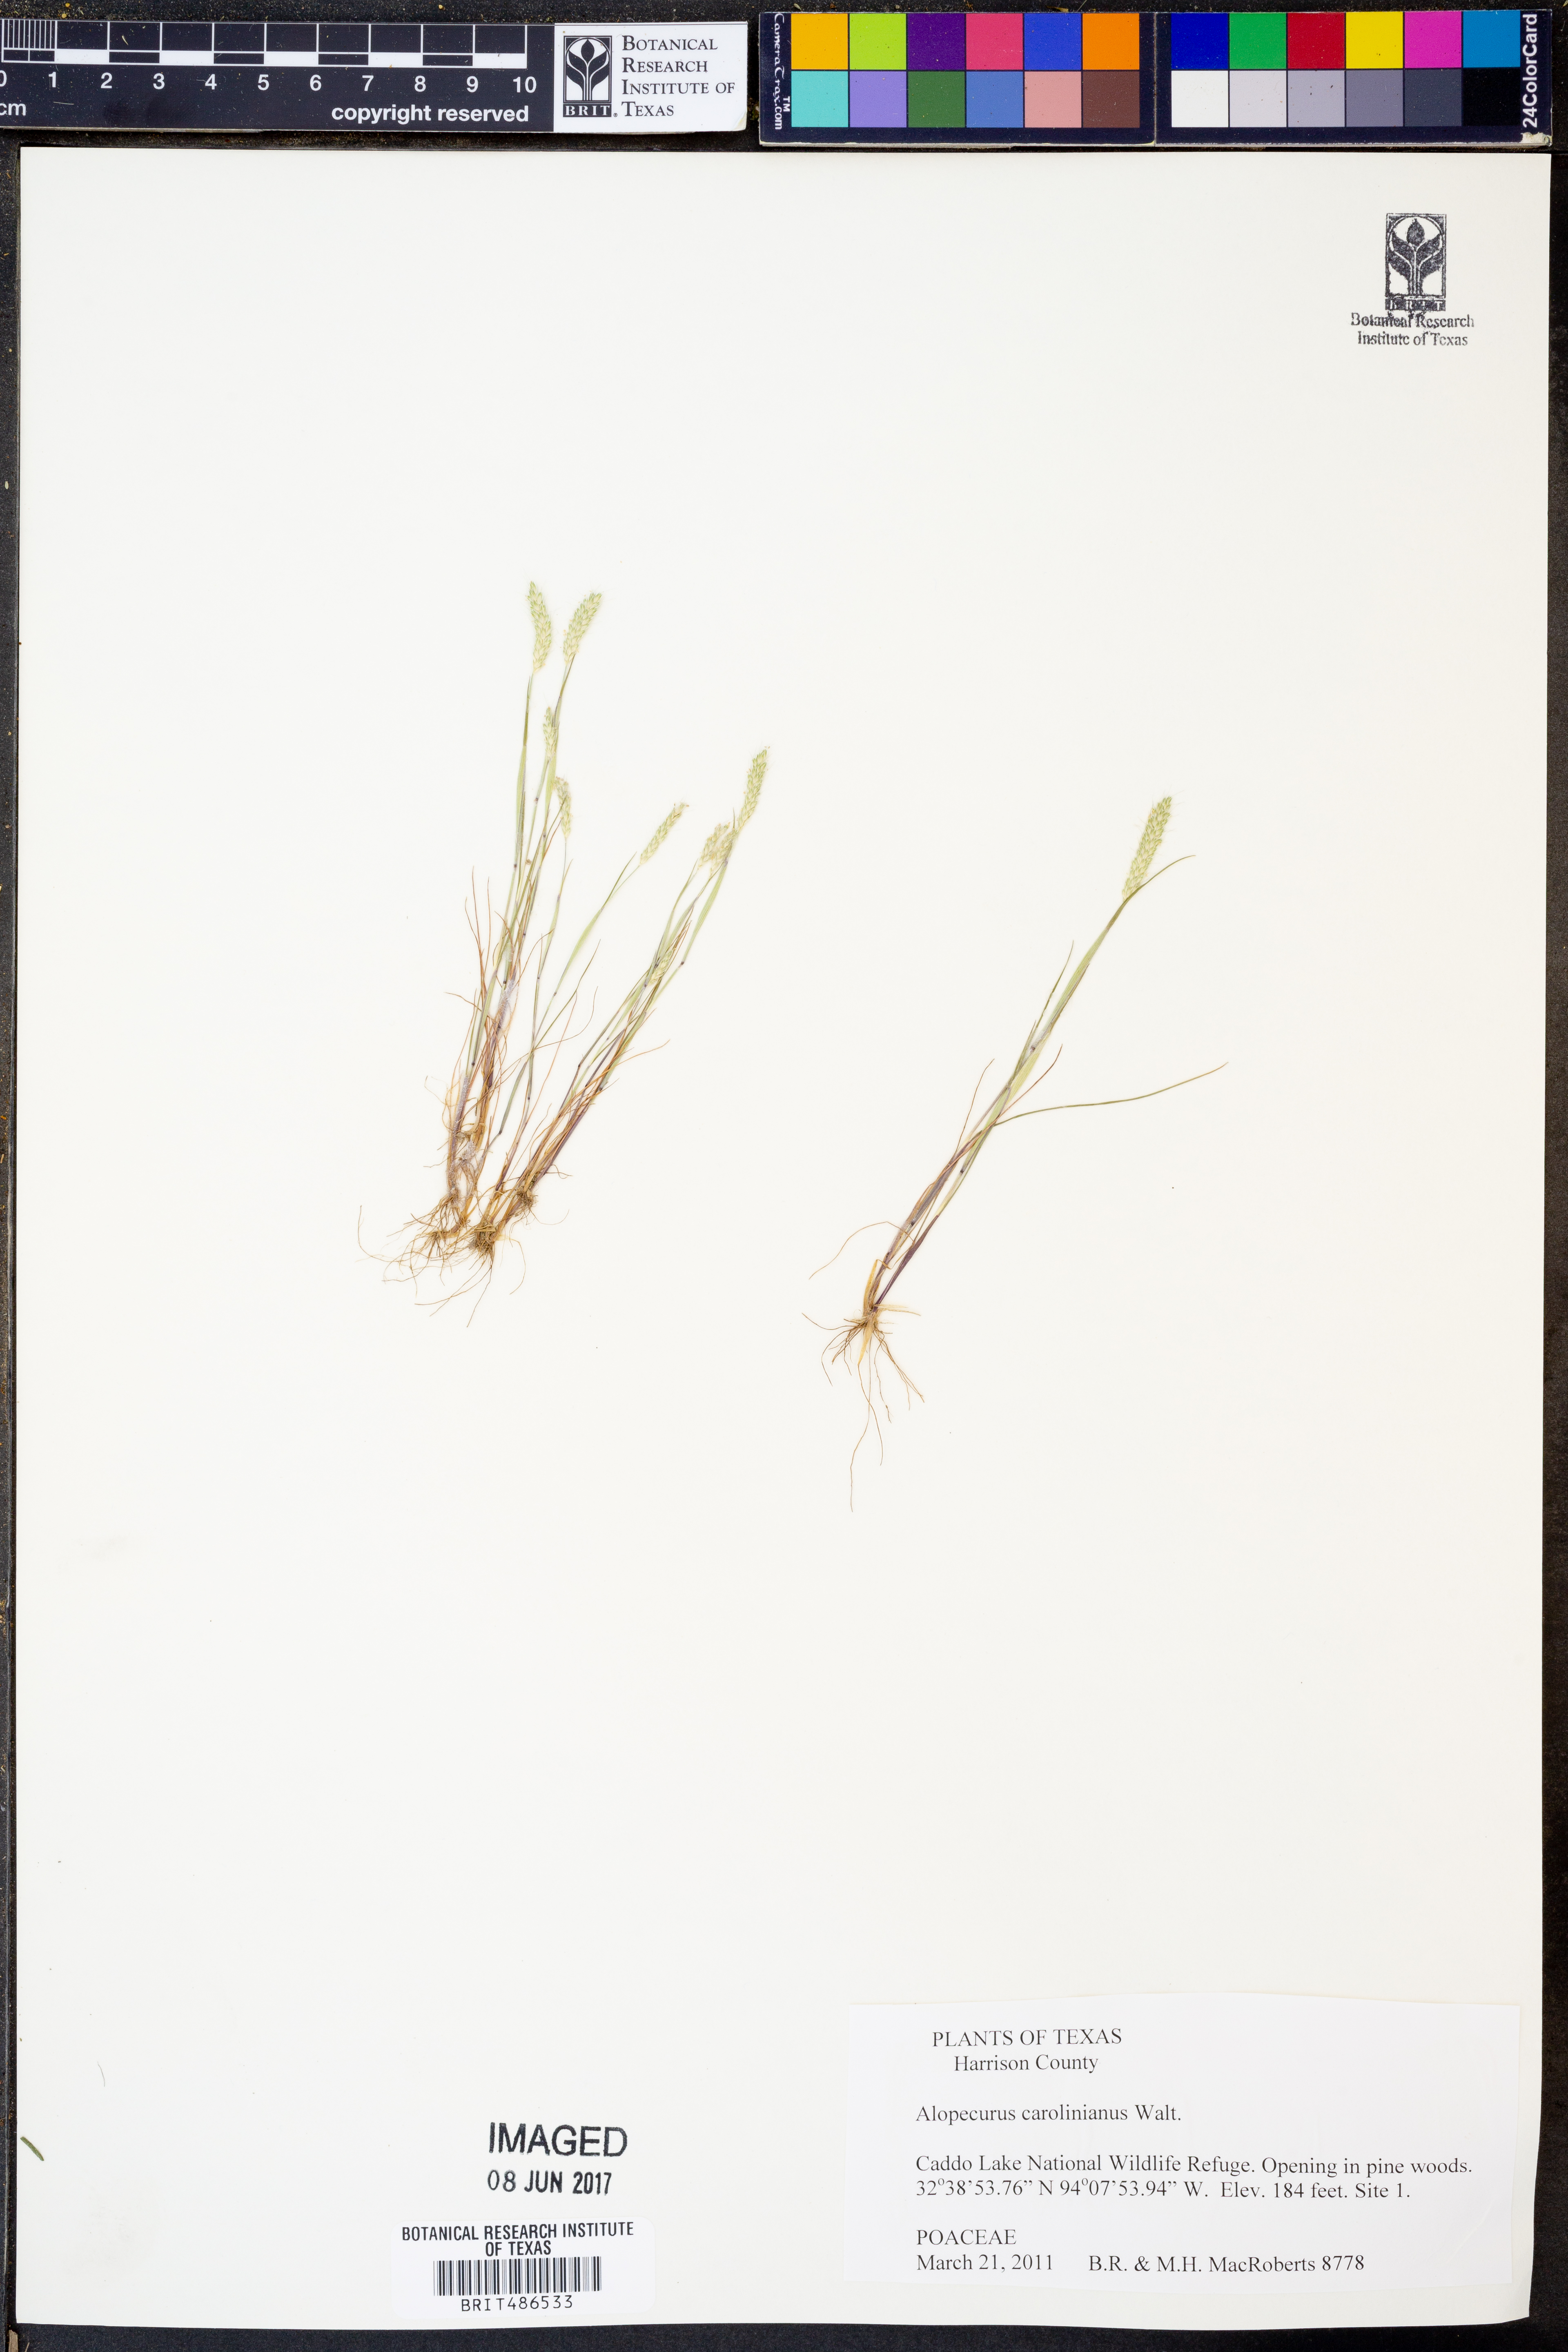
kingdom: Plantae
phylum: Tracheophyta
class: Liliopsida
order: Poales
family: Poaceae
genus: Alopecurus
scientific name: Alopecurus carolinianus
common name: Tufted foxtail
